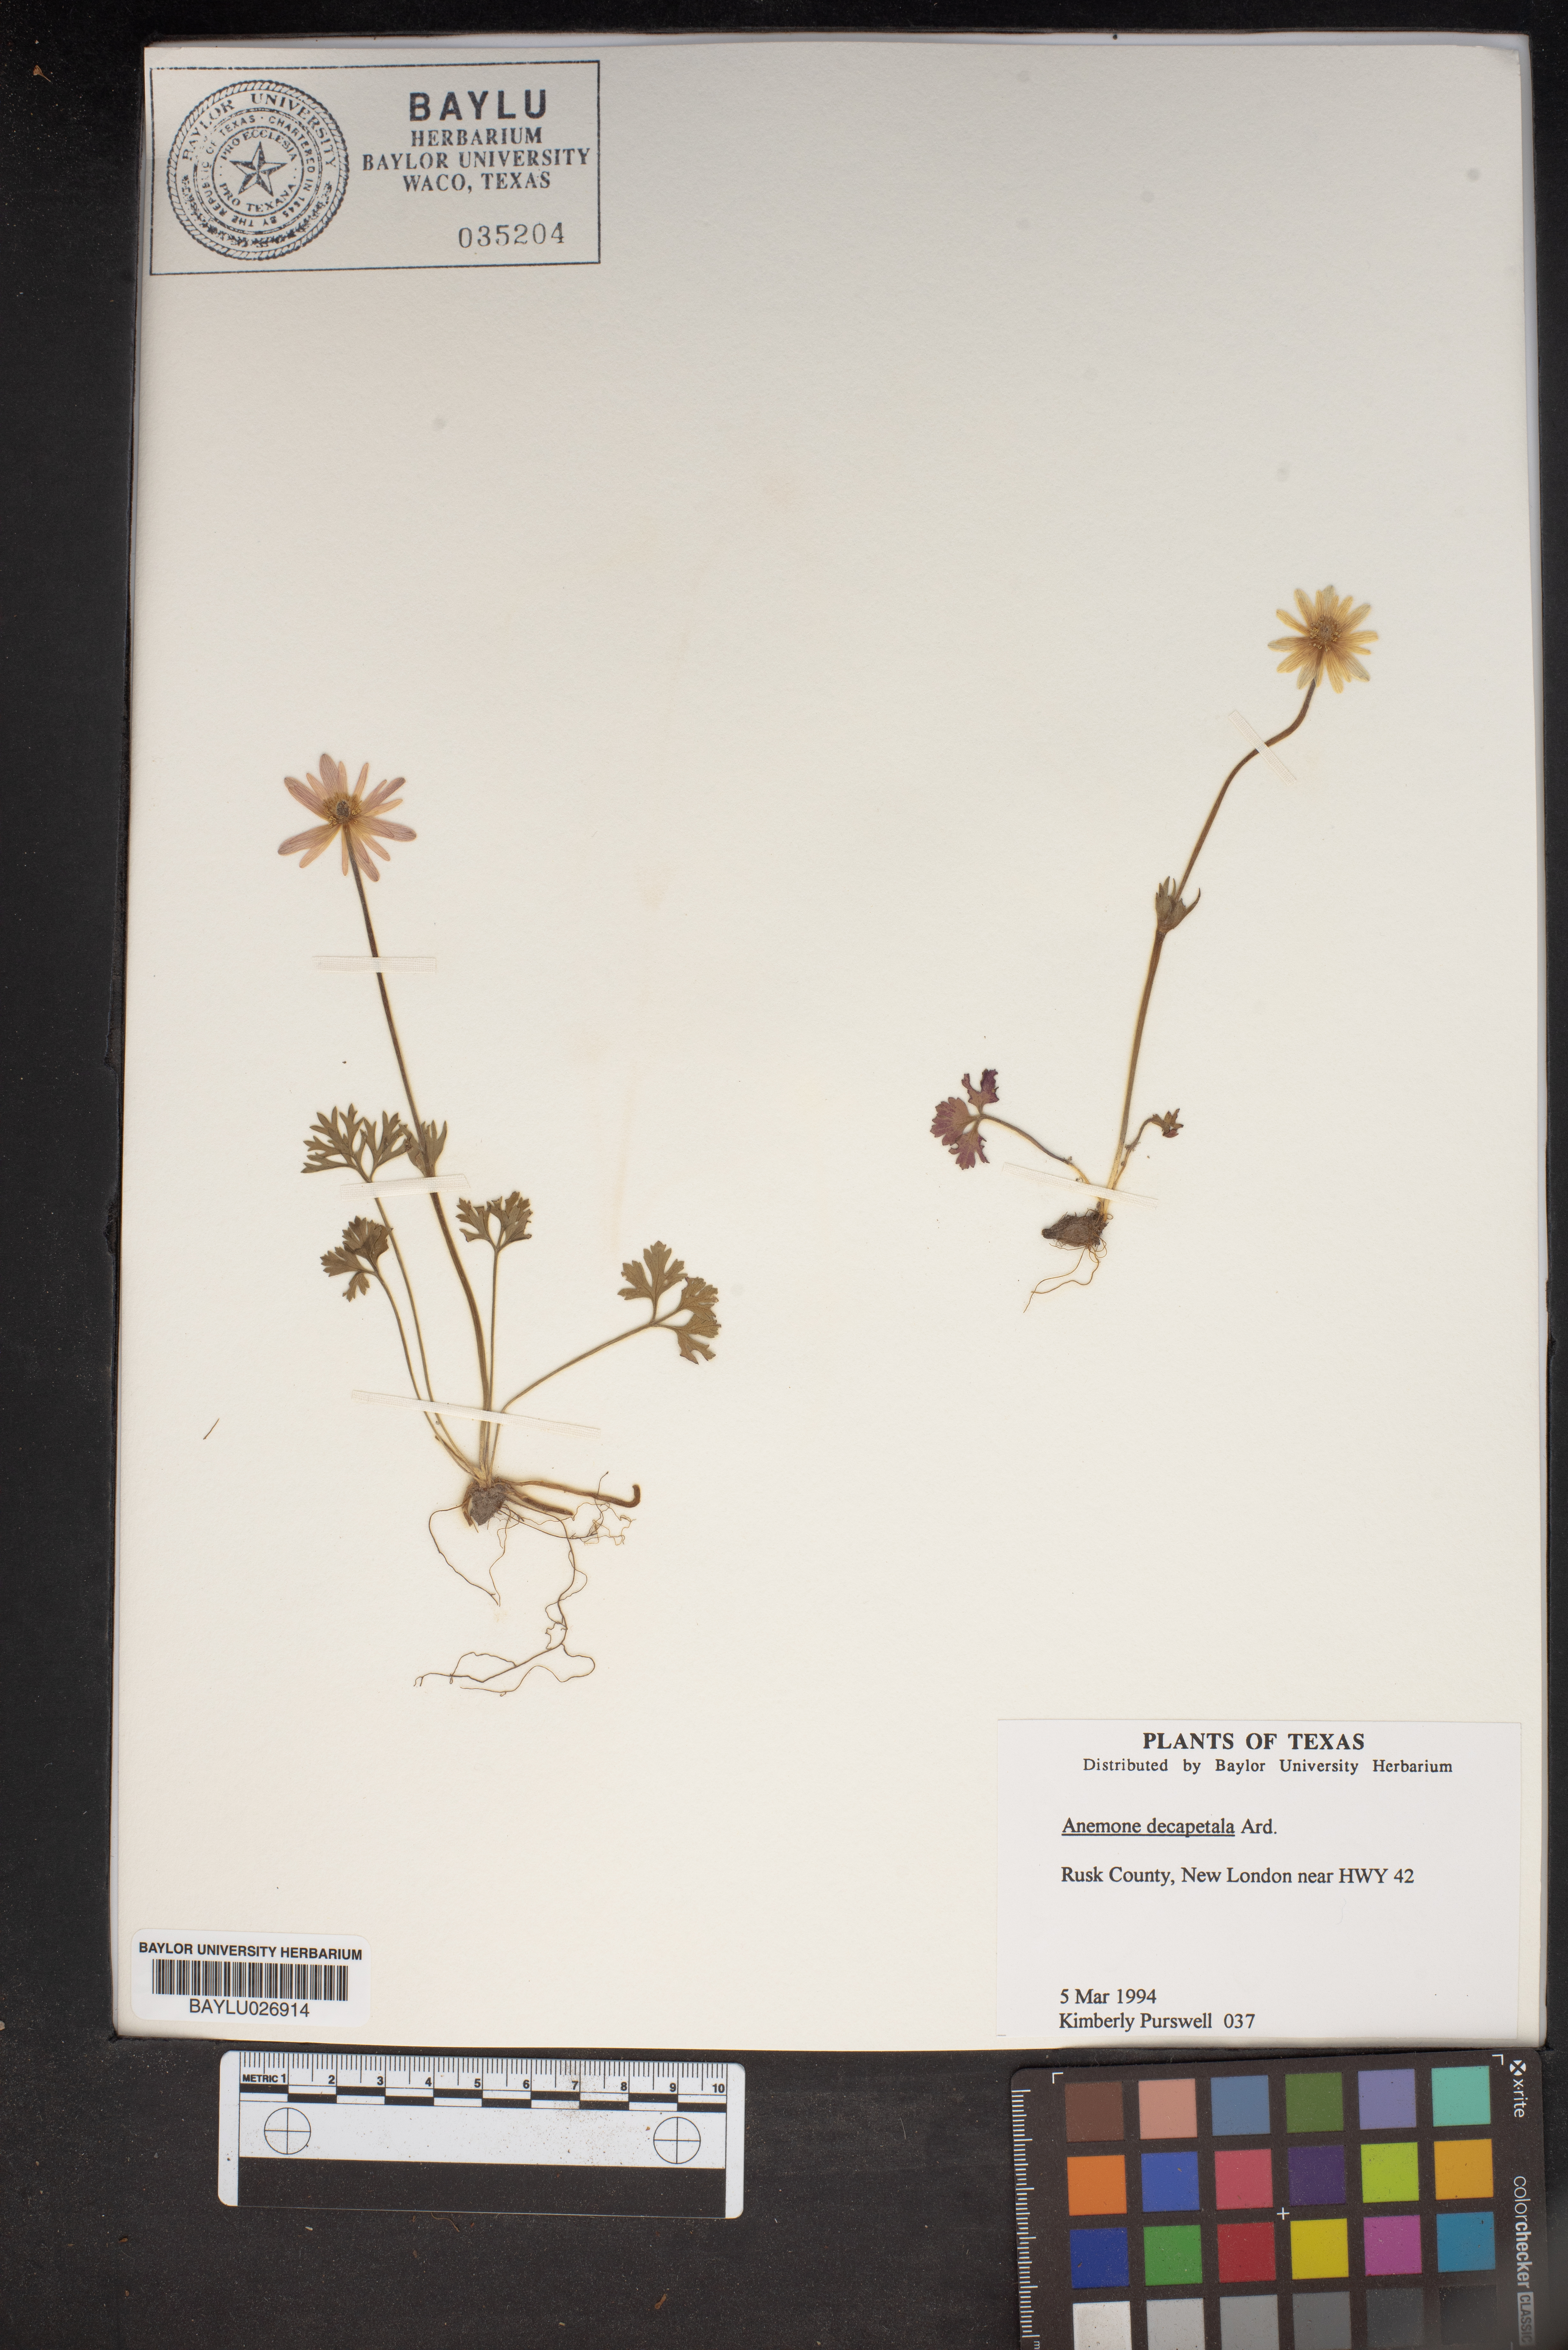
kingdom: Plantae
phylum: Tracheophyta
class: Magnoliopsida
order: Ranunculales
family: Ranunculaceae
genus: Anemone
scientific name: Anemone decapetala
